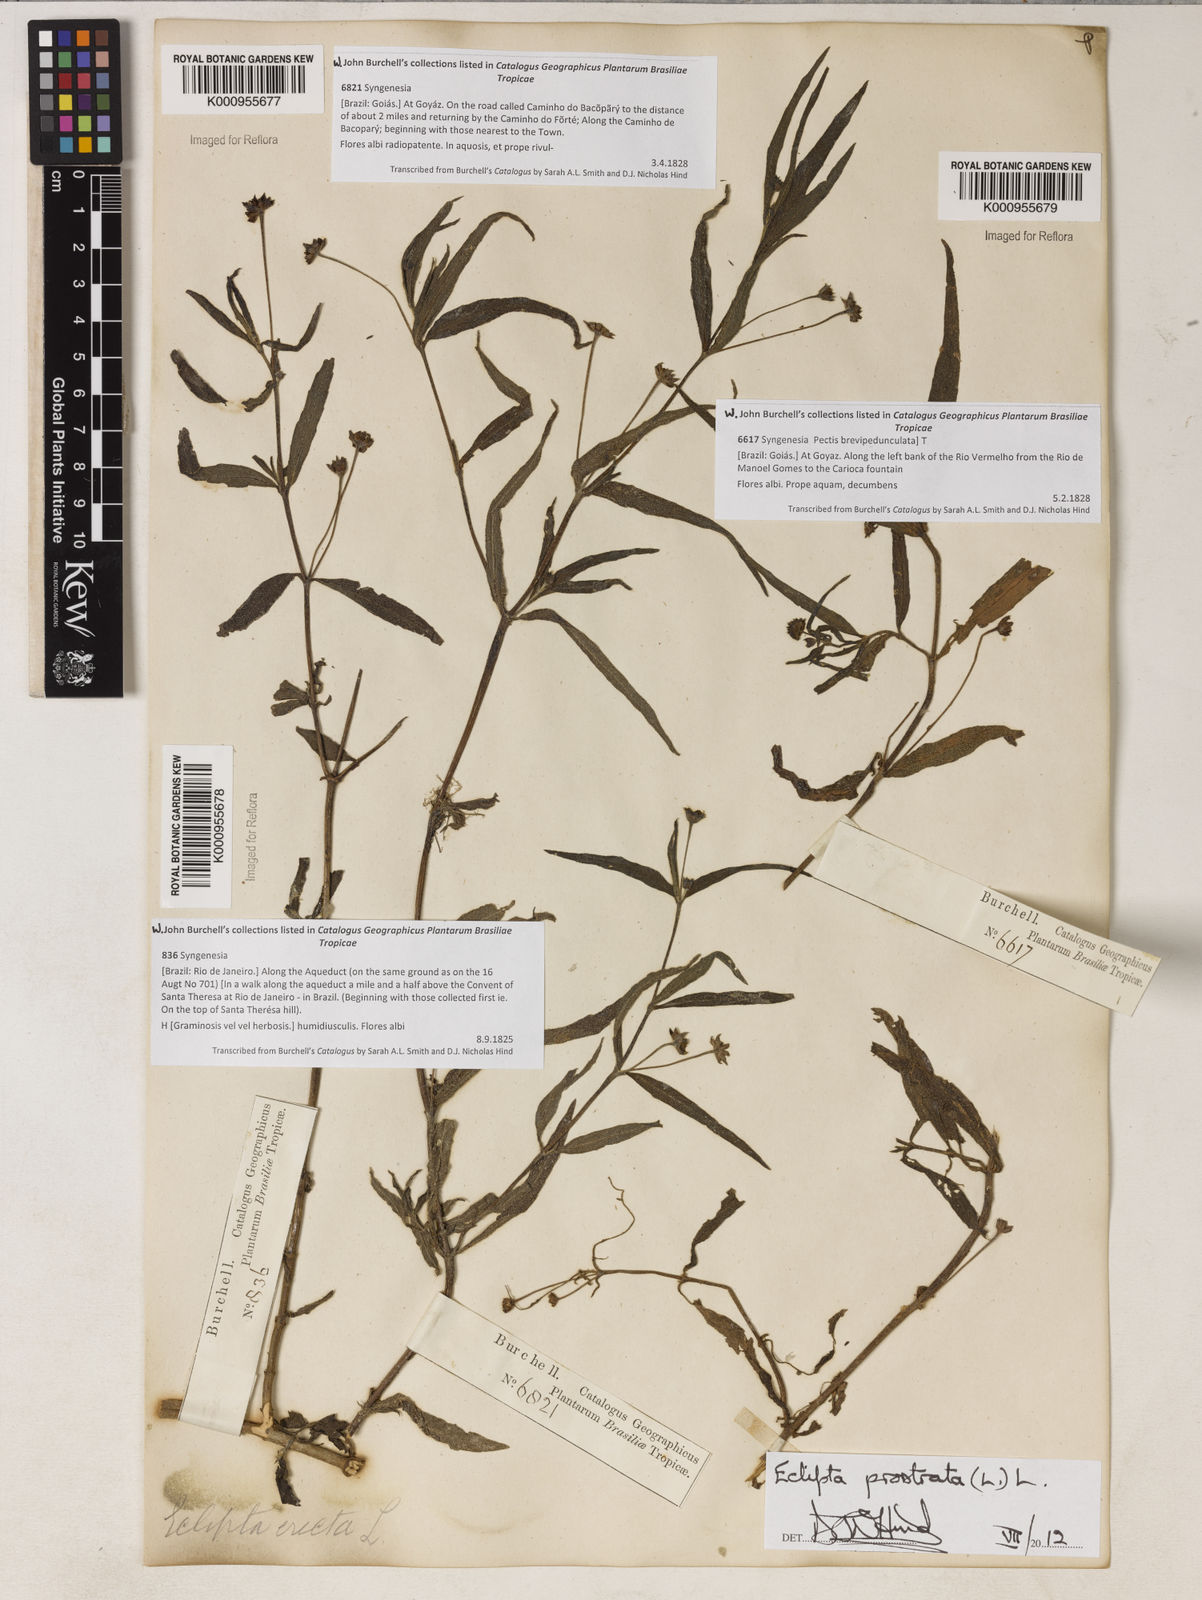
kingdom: Plantae
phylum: Tracheophyta
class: Magnoliopsida
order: Asterales
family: Asteraceae
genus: Eclipta
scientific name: Eclipta prostrata
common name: False daisy
